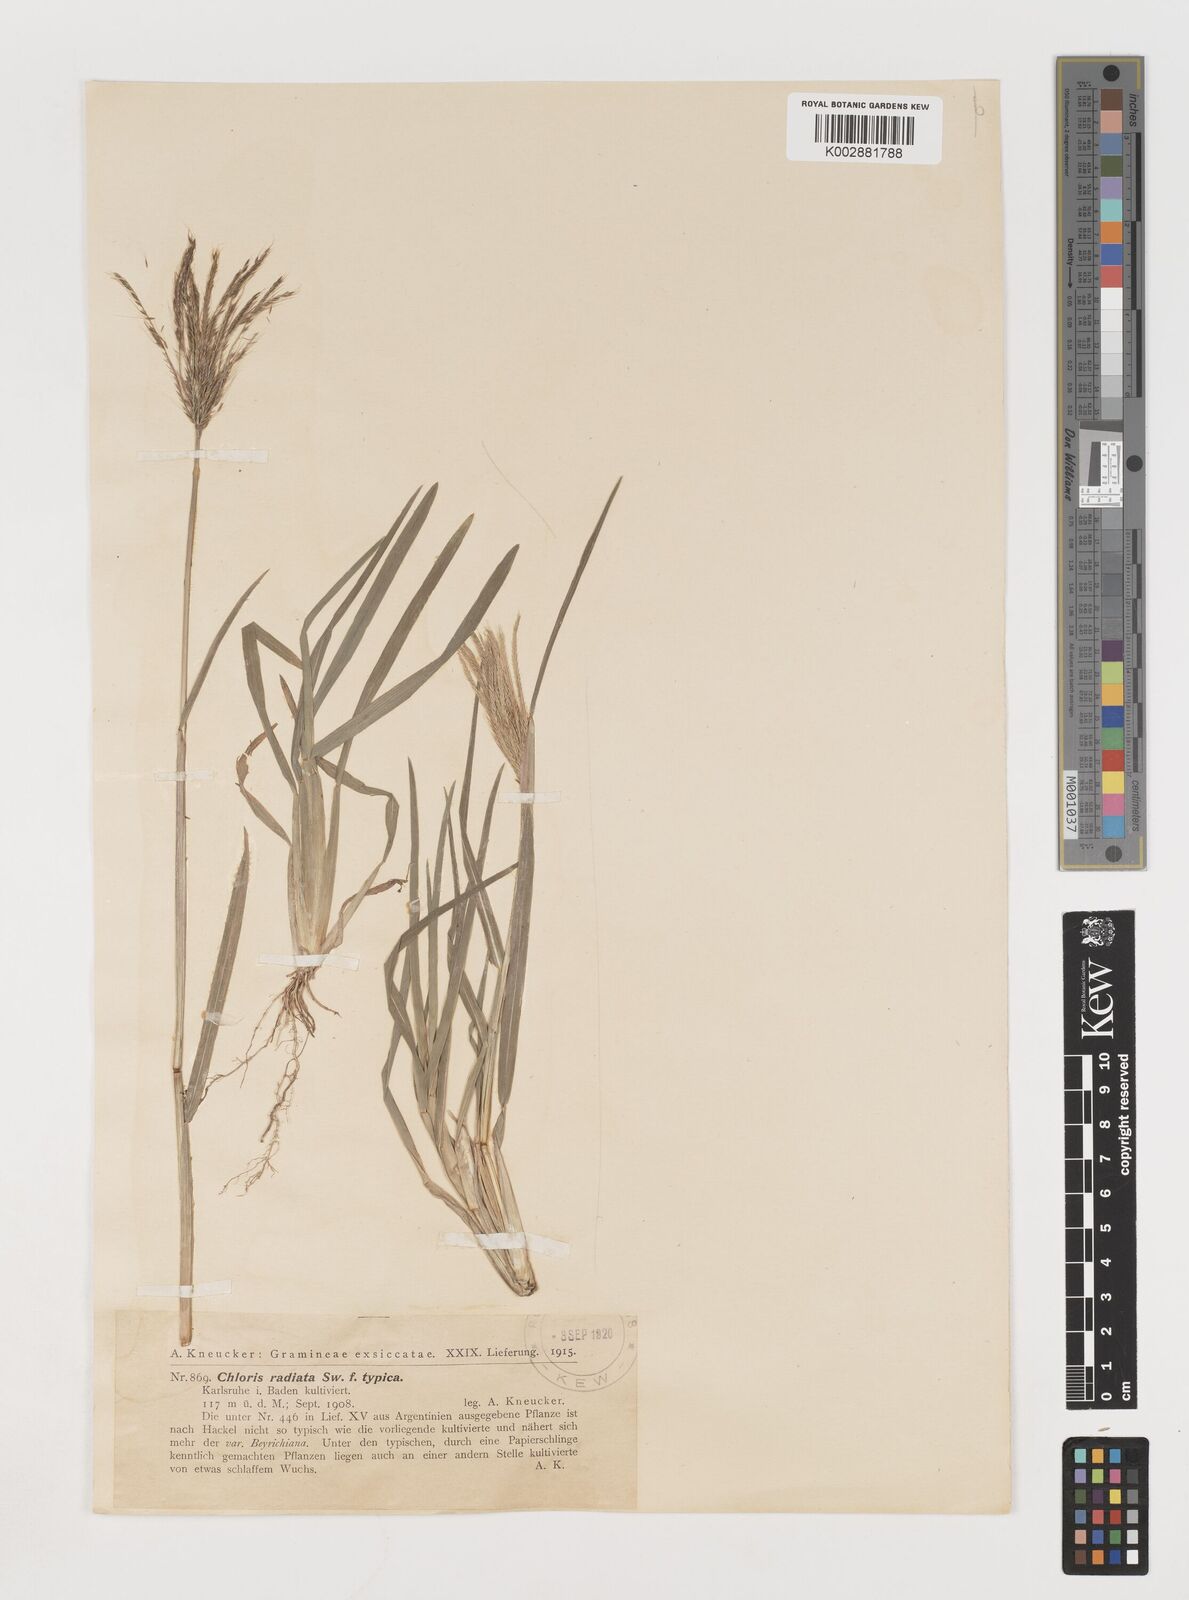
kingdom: Plantae
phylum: Tracheophyta
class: Liliopsida
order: Poales
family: Poaceae
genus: Chloris
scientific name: Chloris radiata
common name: Radiate fingergrass
